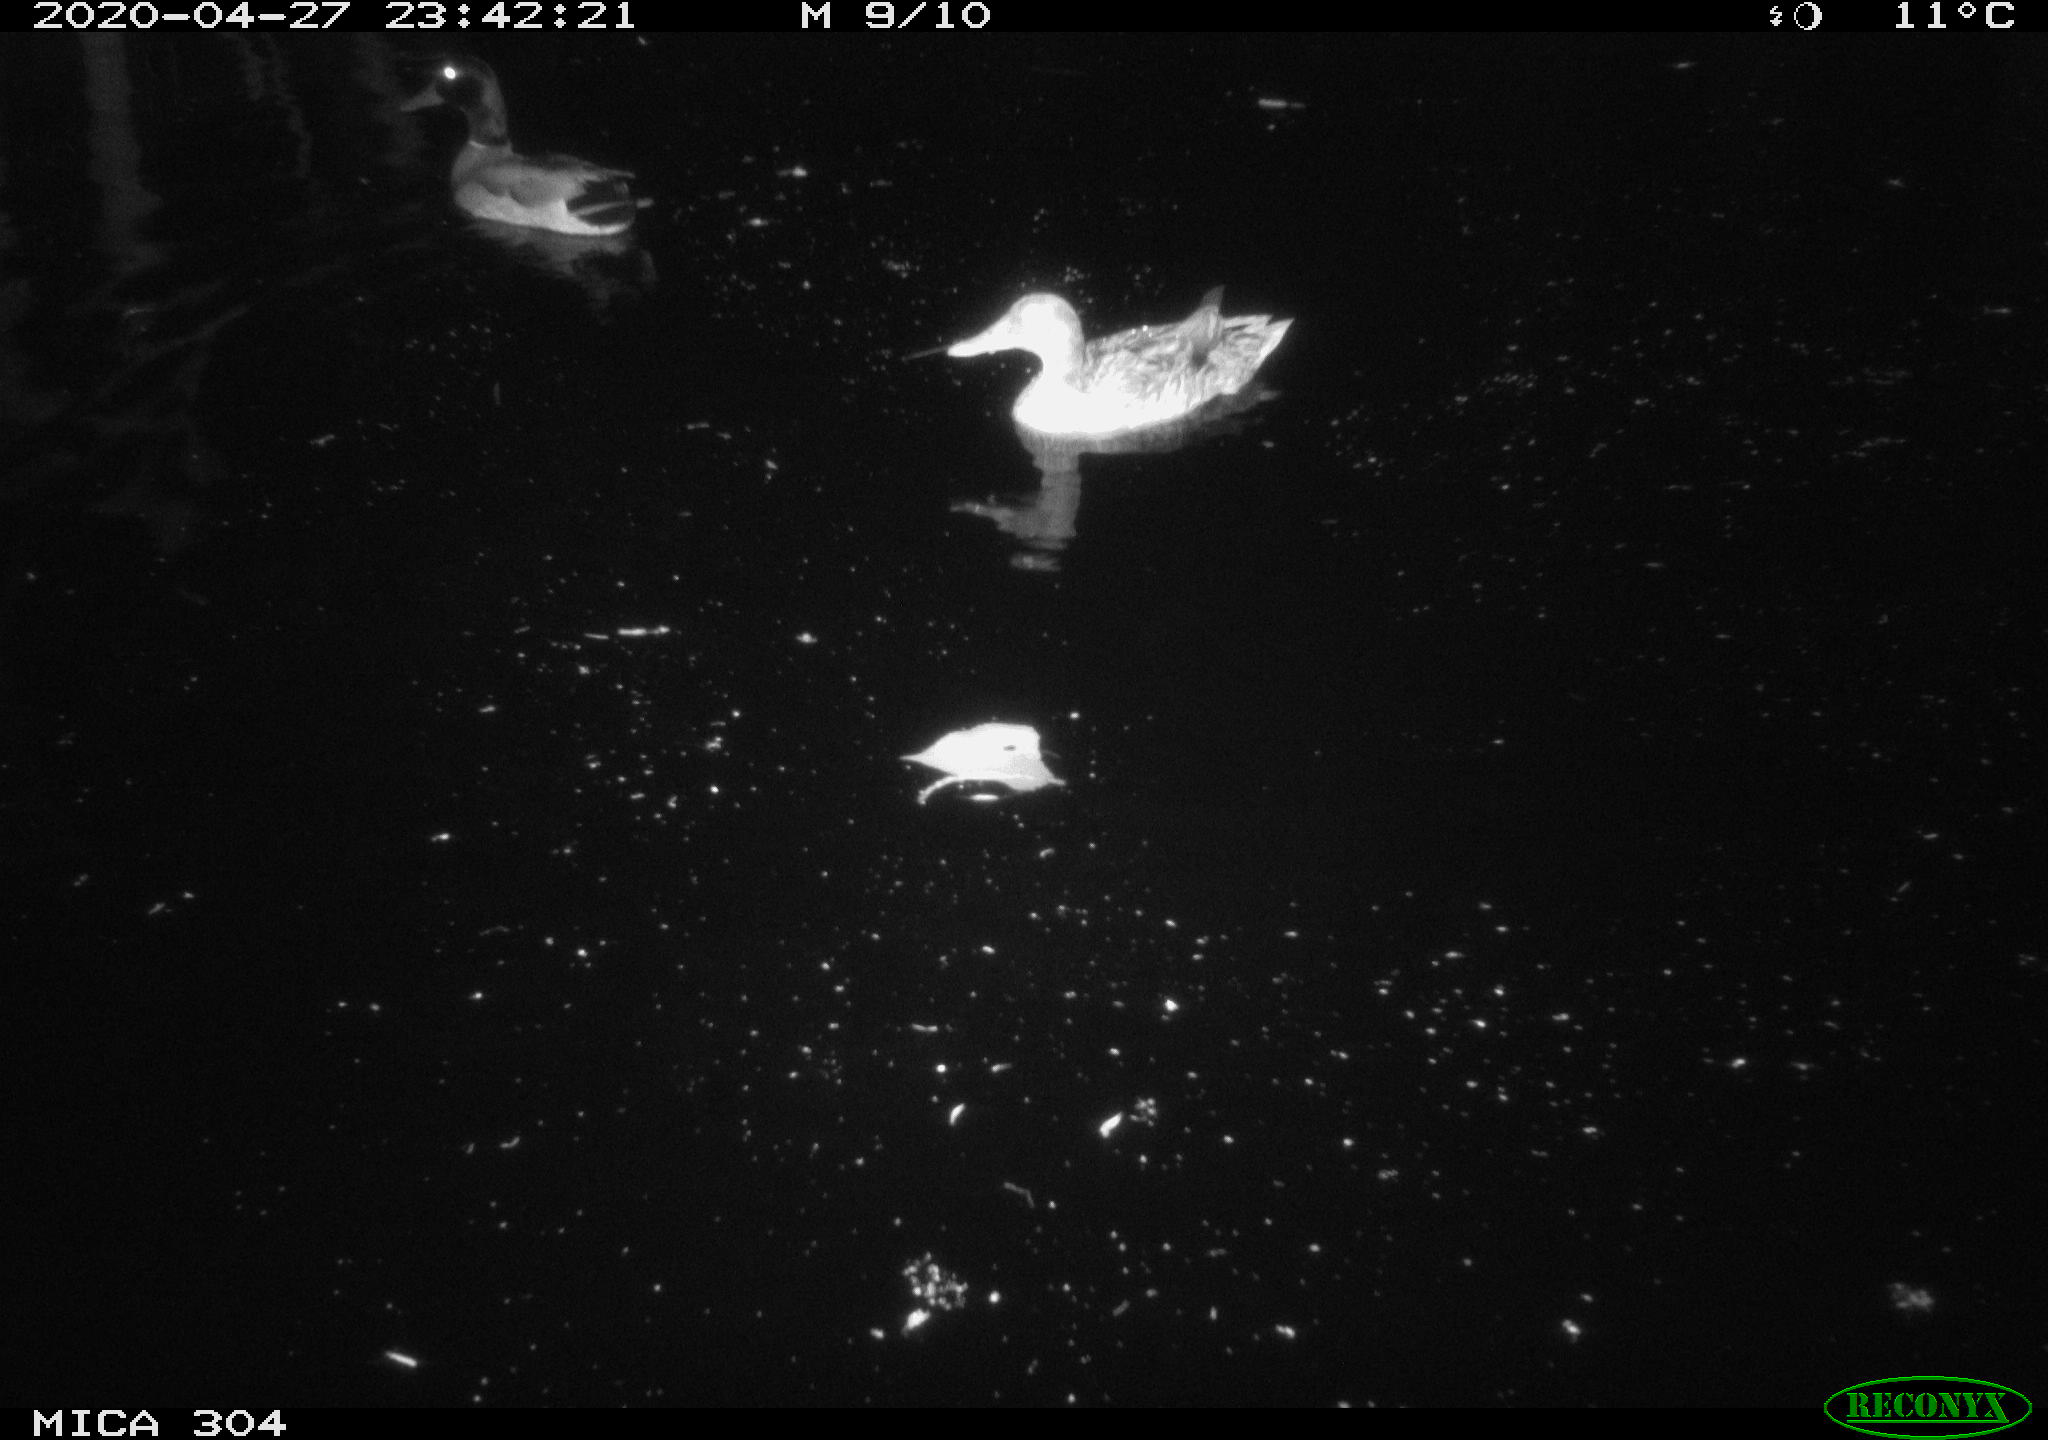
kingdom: Animalia
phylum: Chordata
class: Aves
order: Anseriformes
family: Anatidae
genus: Anas
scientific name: Anas platyrhynchos
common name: Mallard
